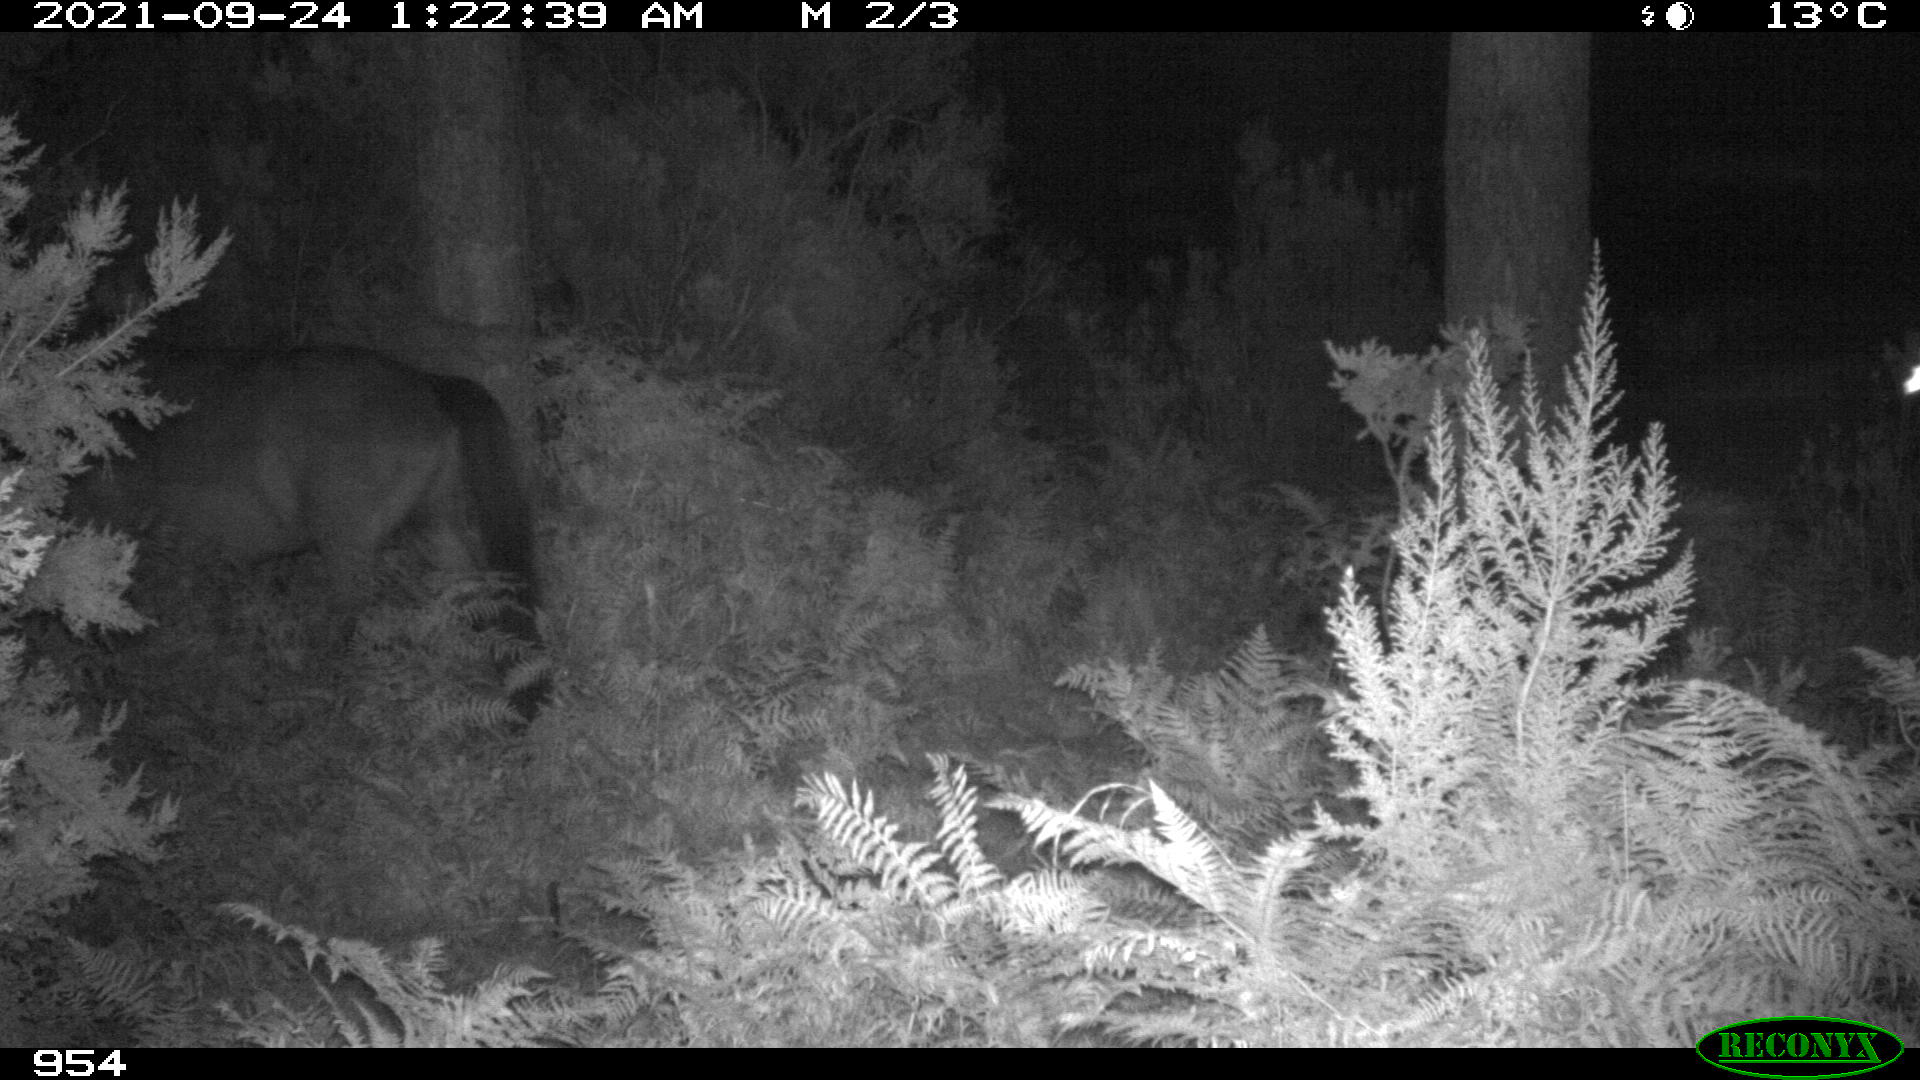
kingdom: Animalia
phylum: Chordata
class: Mammalia
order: Perissodactyla
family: Equidae
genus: Equus
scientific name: Equus caballus
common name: Horse
